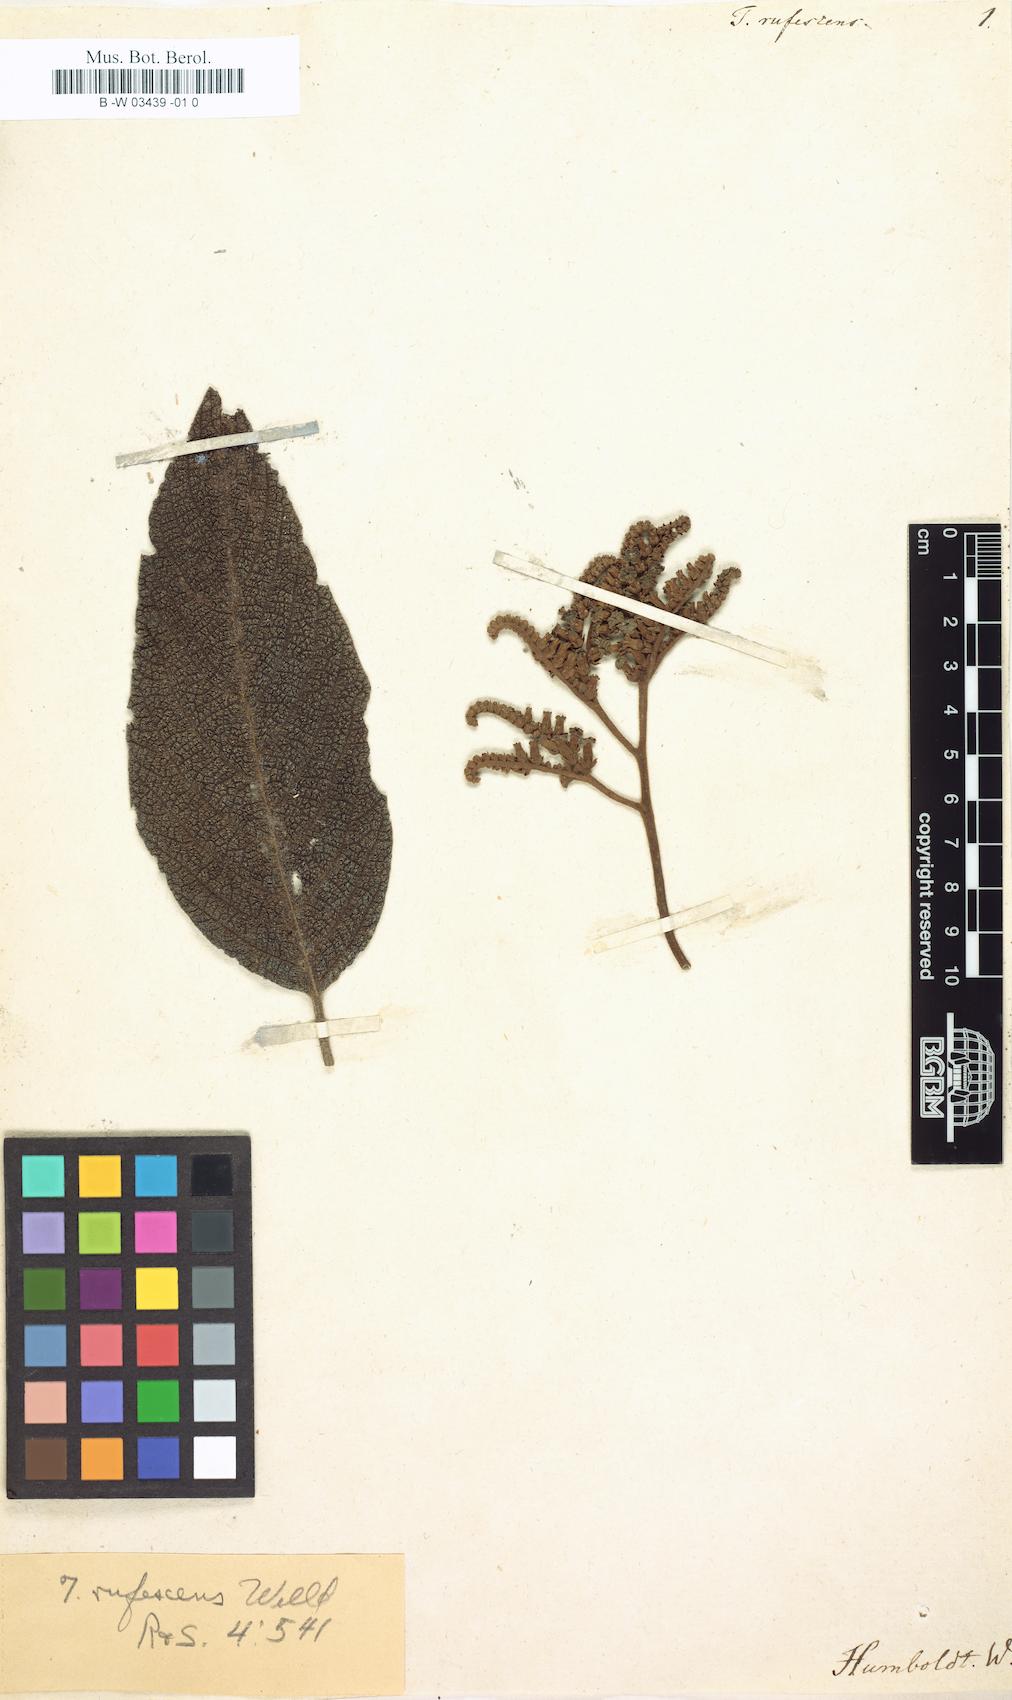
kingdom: Plantae
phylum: Tracheophyta
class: Magnoliopsida
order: Boraginales
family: Heliotropiaceae
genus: Tournefortia
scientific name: Tournefortia rufescens
